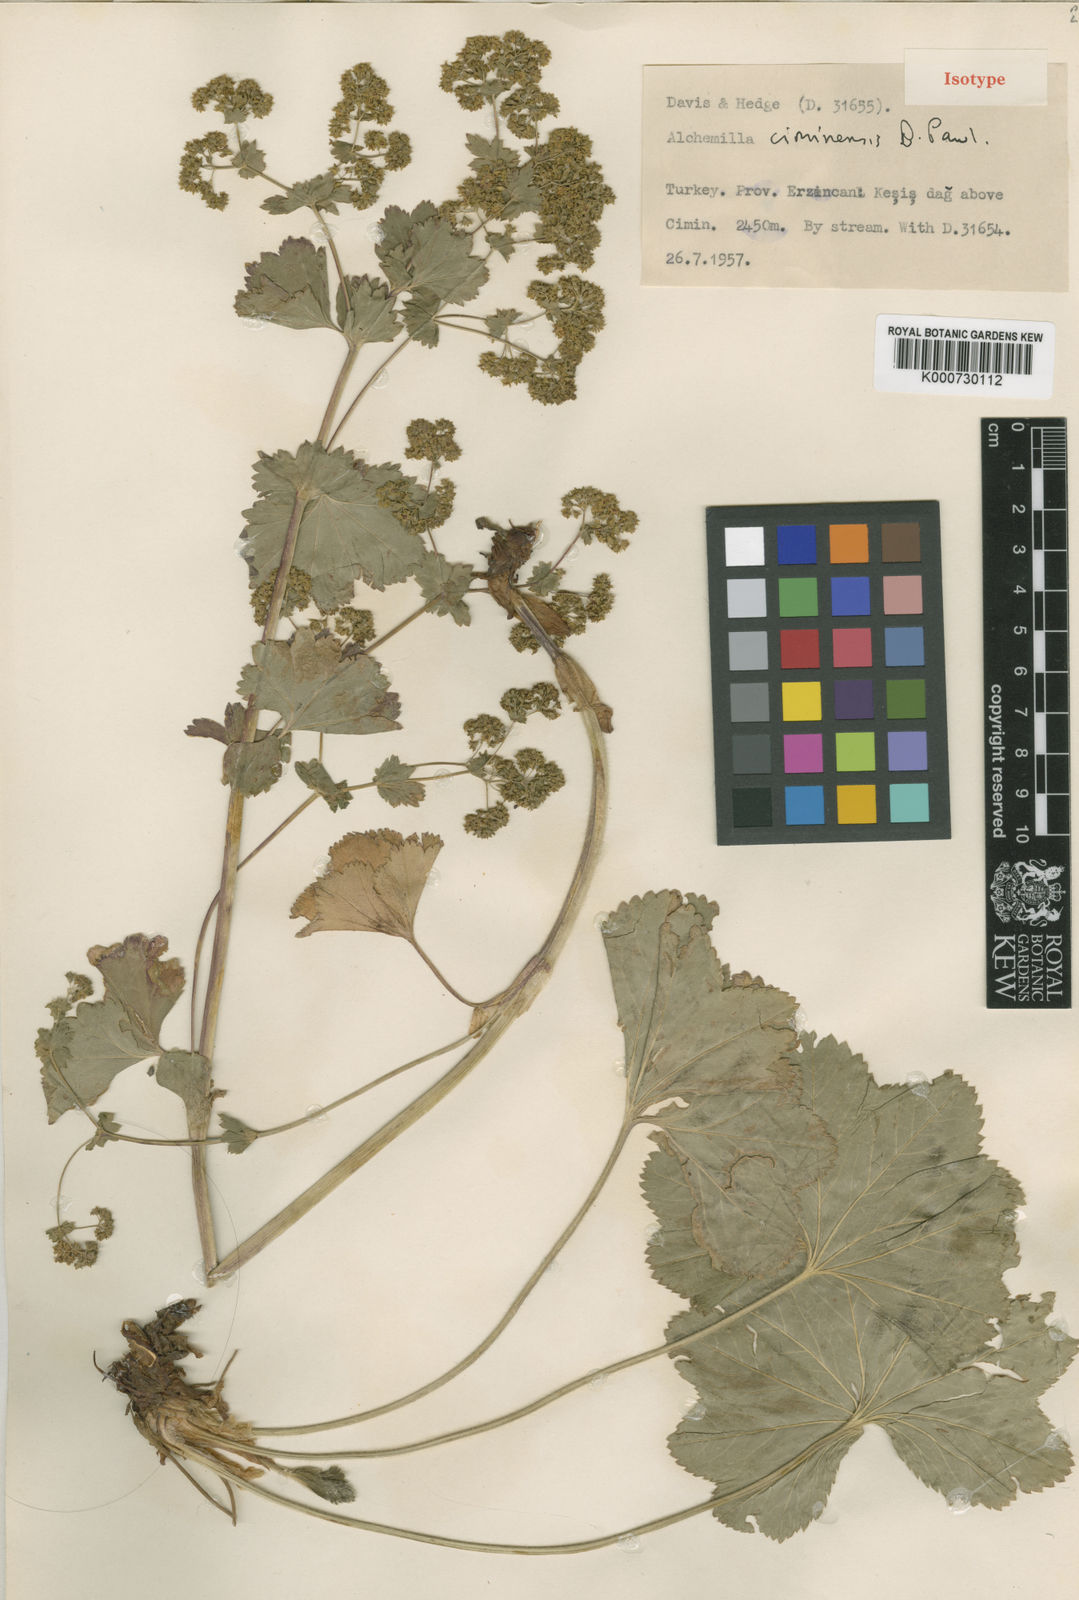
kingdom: Plantae
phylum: Tracheophyta
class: Magnoliopsida
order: Rosales
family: Rosaceae
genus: Alchemilla
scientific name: Alchemilla ciminensis
